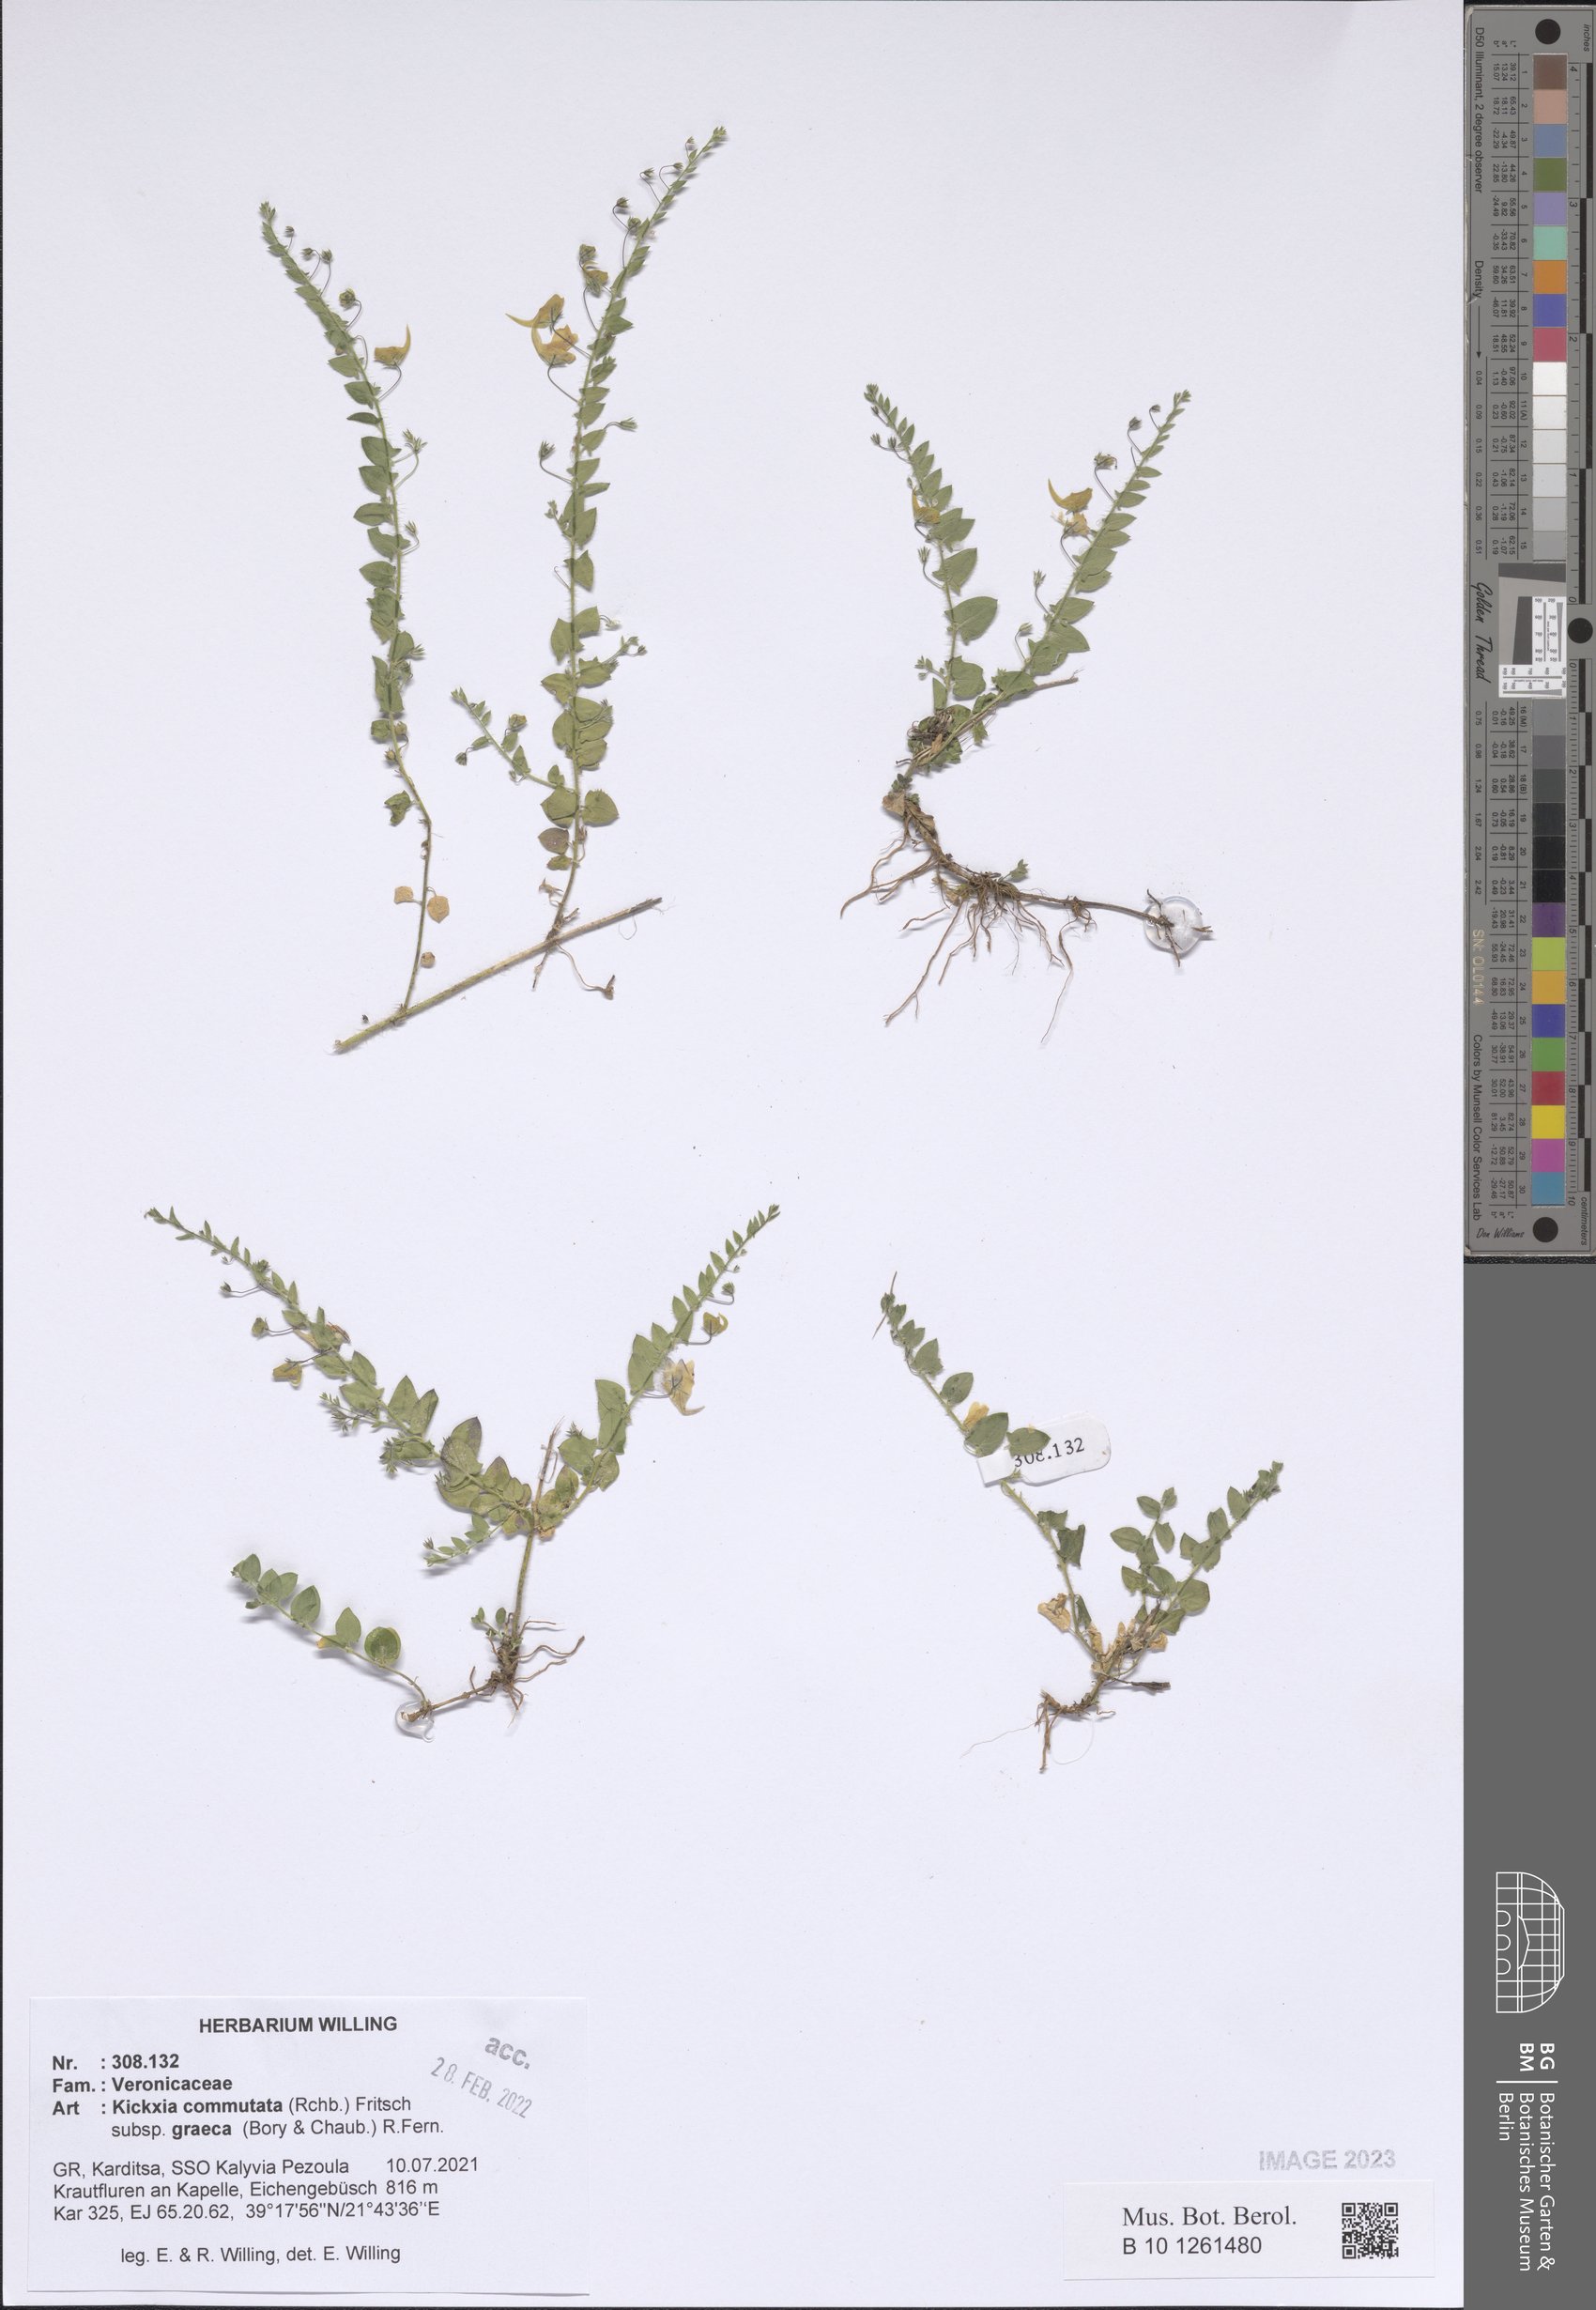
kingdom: Plantae
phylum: Tracheophyta
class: Magnoliopsida
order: Lamiales
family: Plantaginaceae
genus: Kickxia
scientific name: Kickxia commutata
